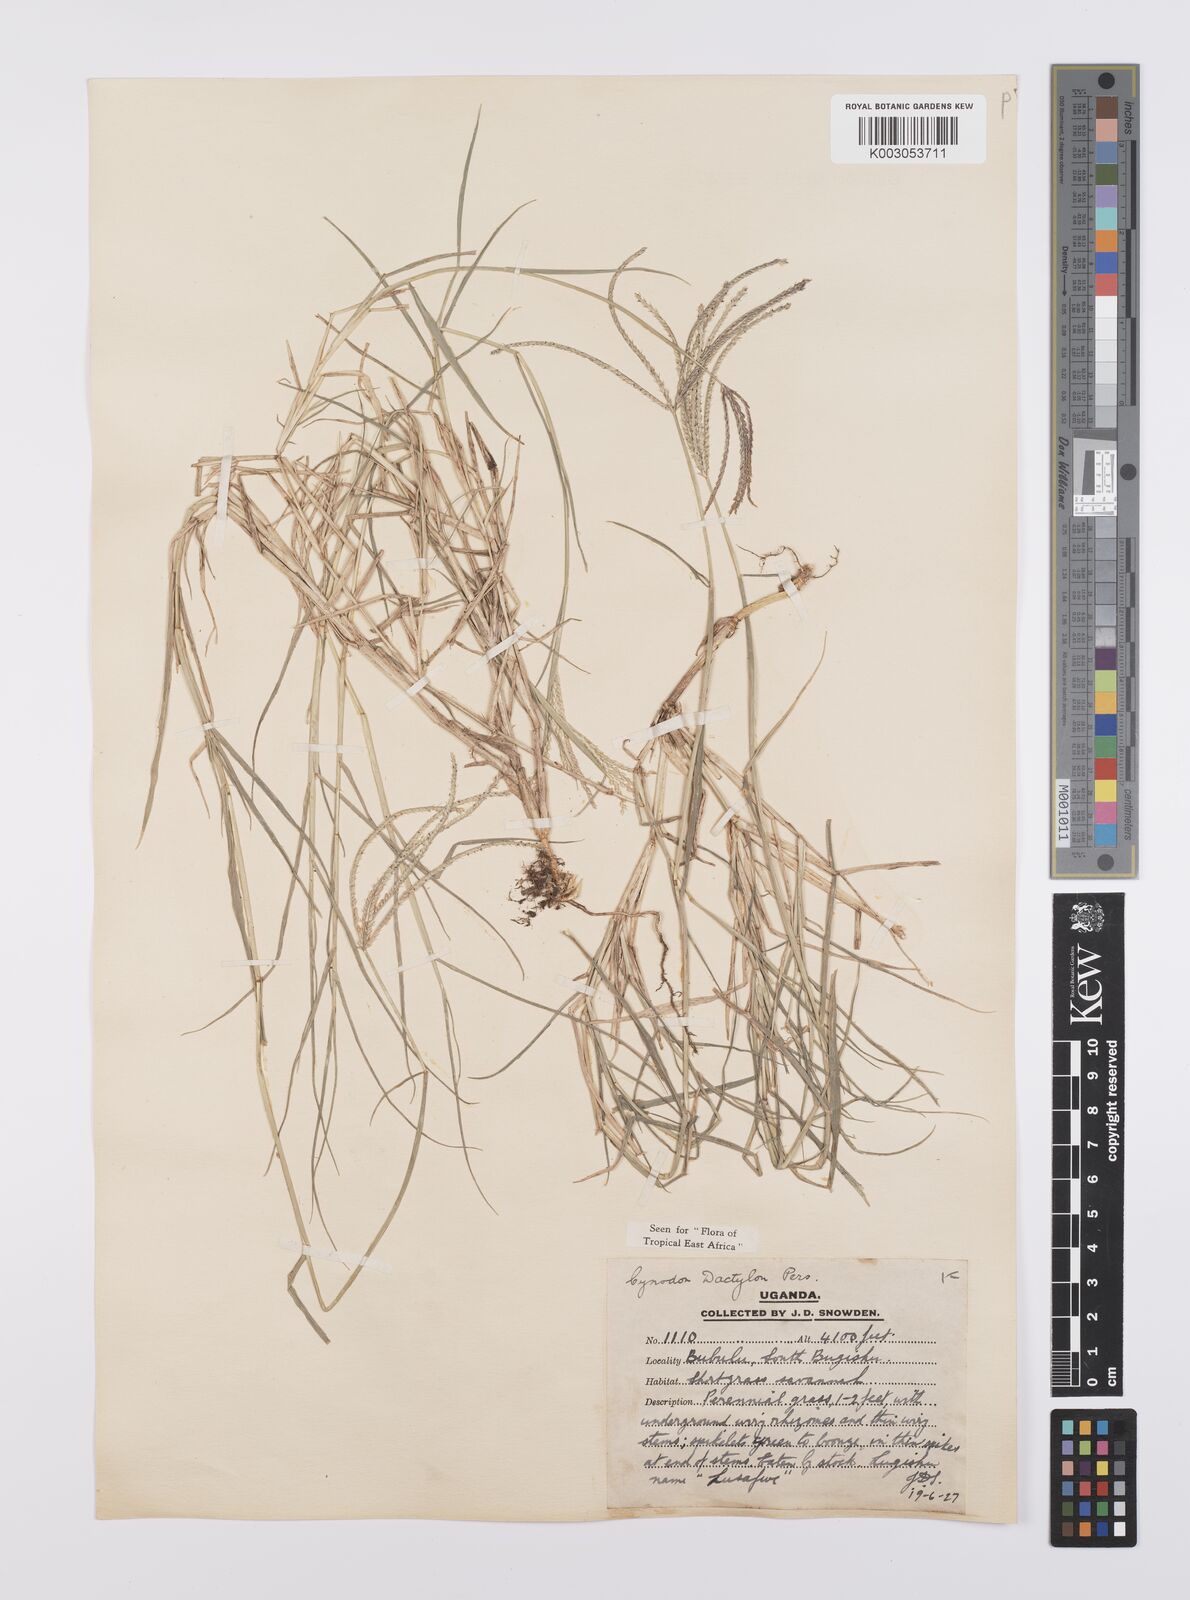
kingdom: Plantae
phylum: Tracheophyta
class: Liliopsida
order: Poales
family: Poaceae
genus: Cynodon
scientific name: Cynodon dactylon
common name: Bermuda grass
